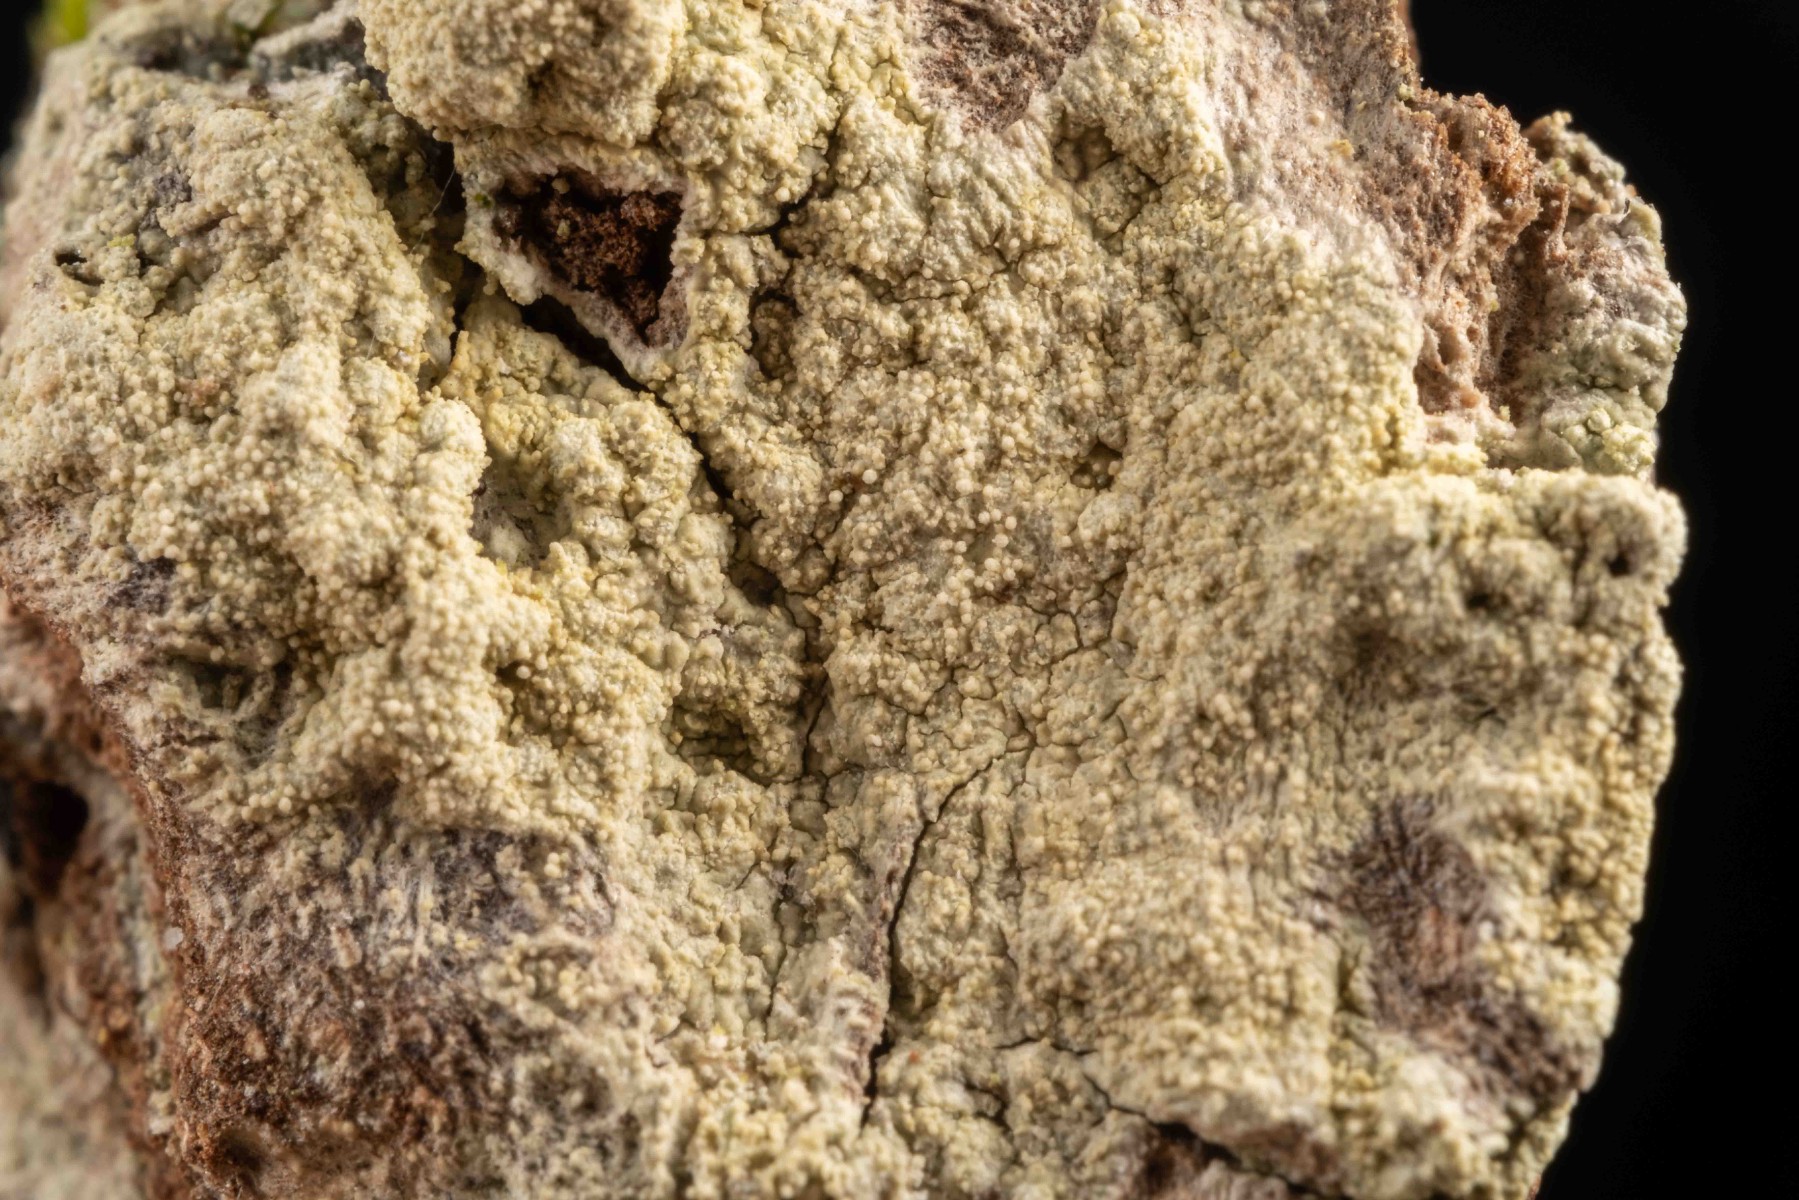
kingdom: Fungi
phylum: Ascomycota
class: Lecanoromycetes
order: Pertusariales
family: Pertusariaceae
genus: Pertusaria
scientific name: Pertusaria flavida
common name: gul prikvortelav
